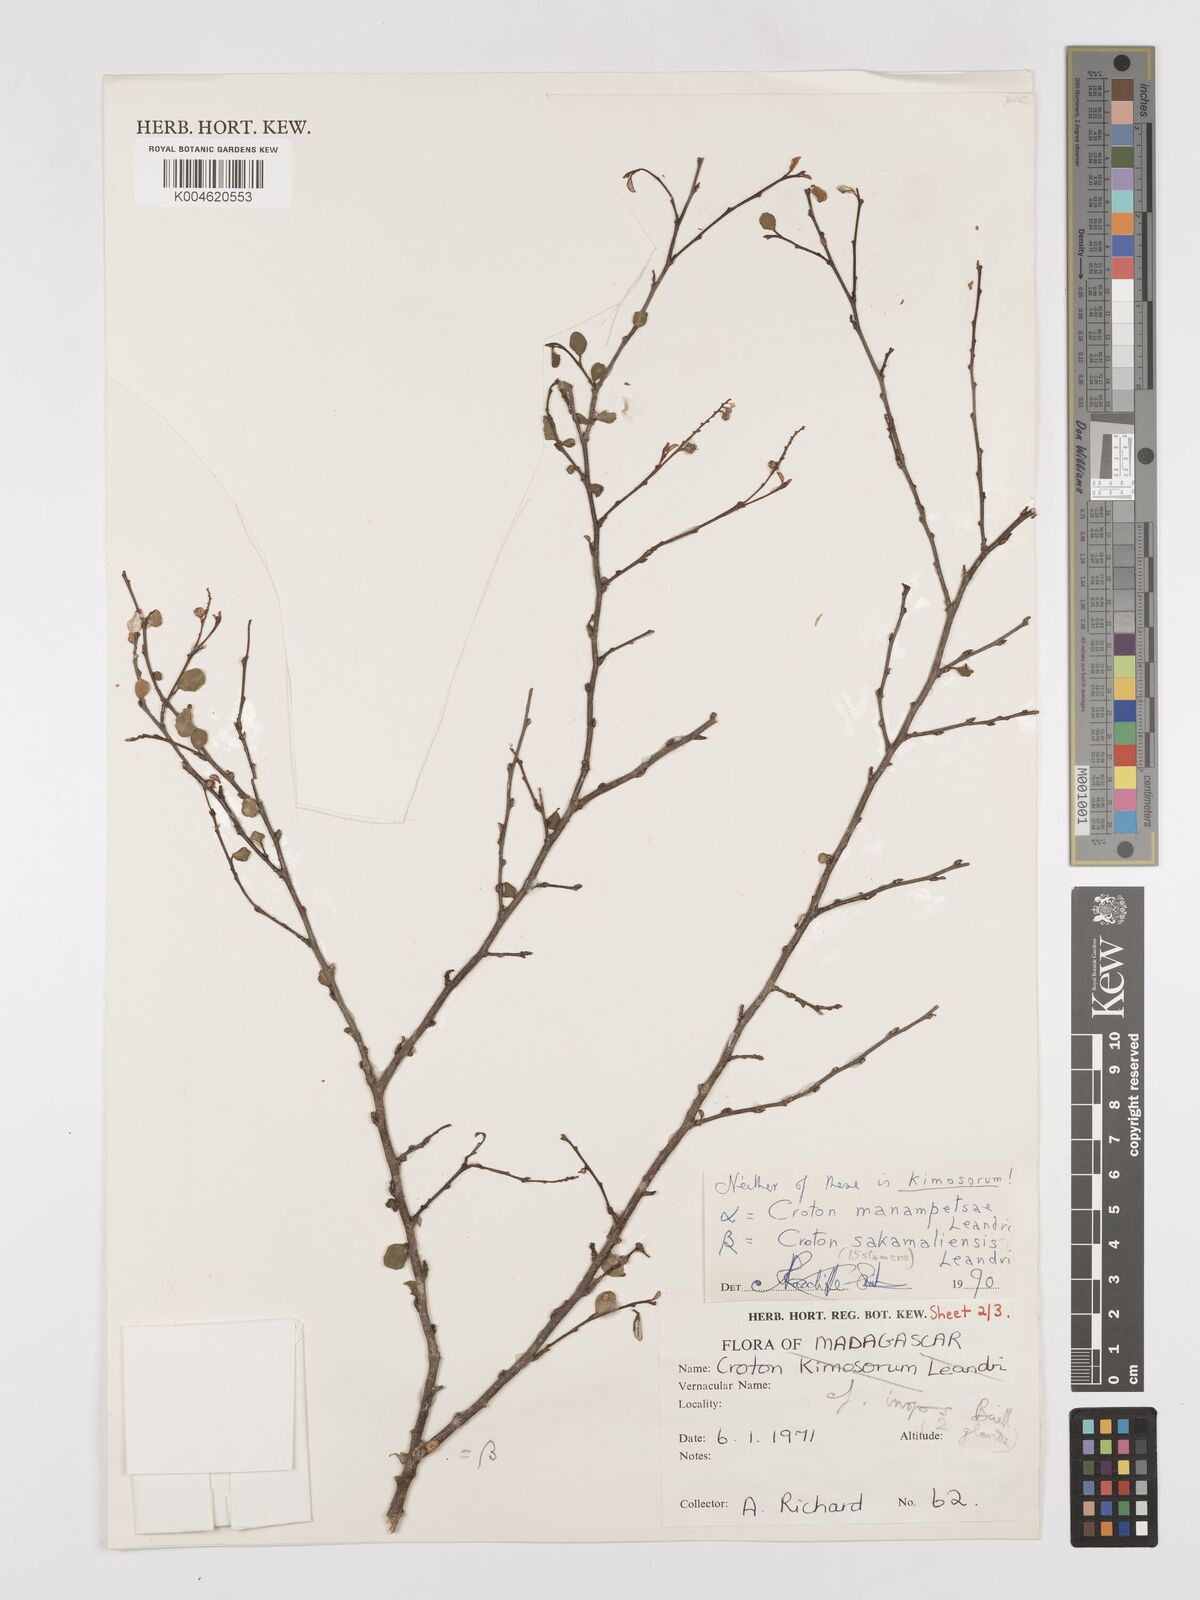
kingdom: Plantae
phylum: Tracheophyta
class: Magnoliopsida
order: Malpighiales
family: Euphorbiaceae
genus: Croton
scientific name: Croton sakamaliensis
